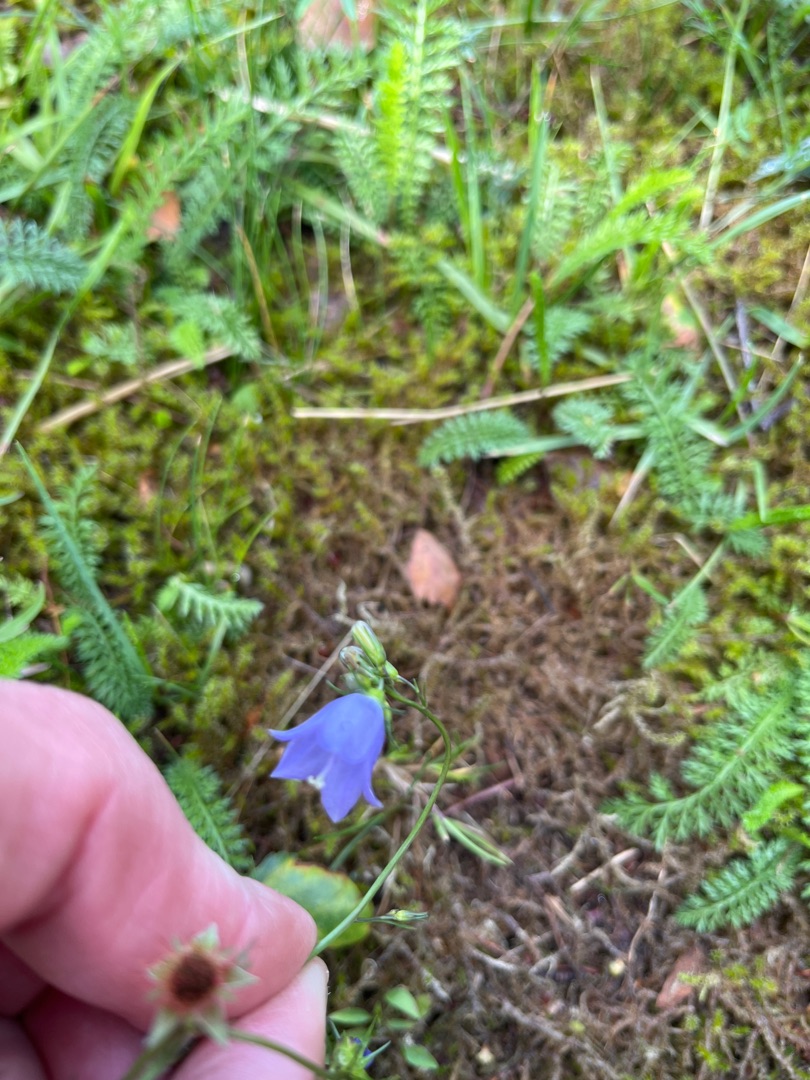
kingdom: Plantae
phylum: Tracheophyta
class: Magnoliopsida
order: Asterales
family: Campanulaceae
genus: Campanula
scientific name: Campanula rotundifolia
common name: Liden klokke
